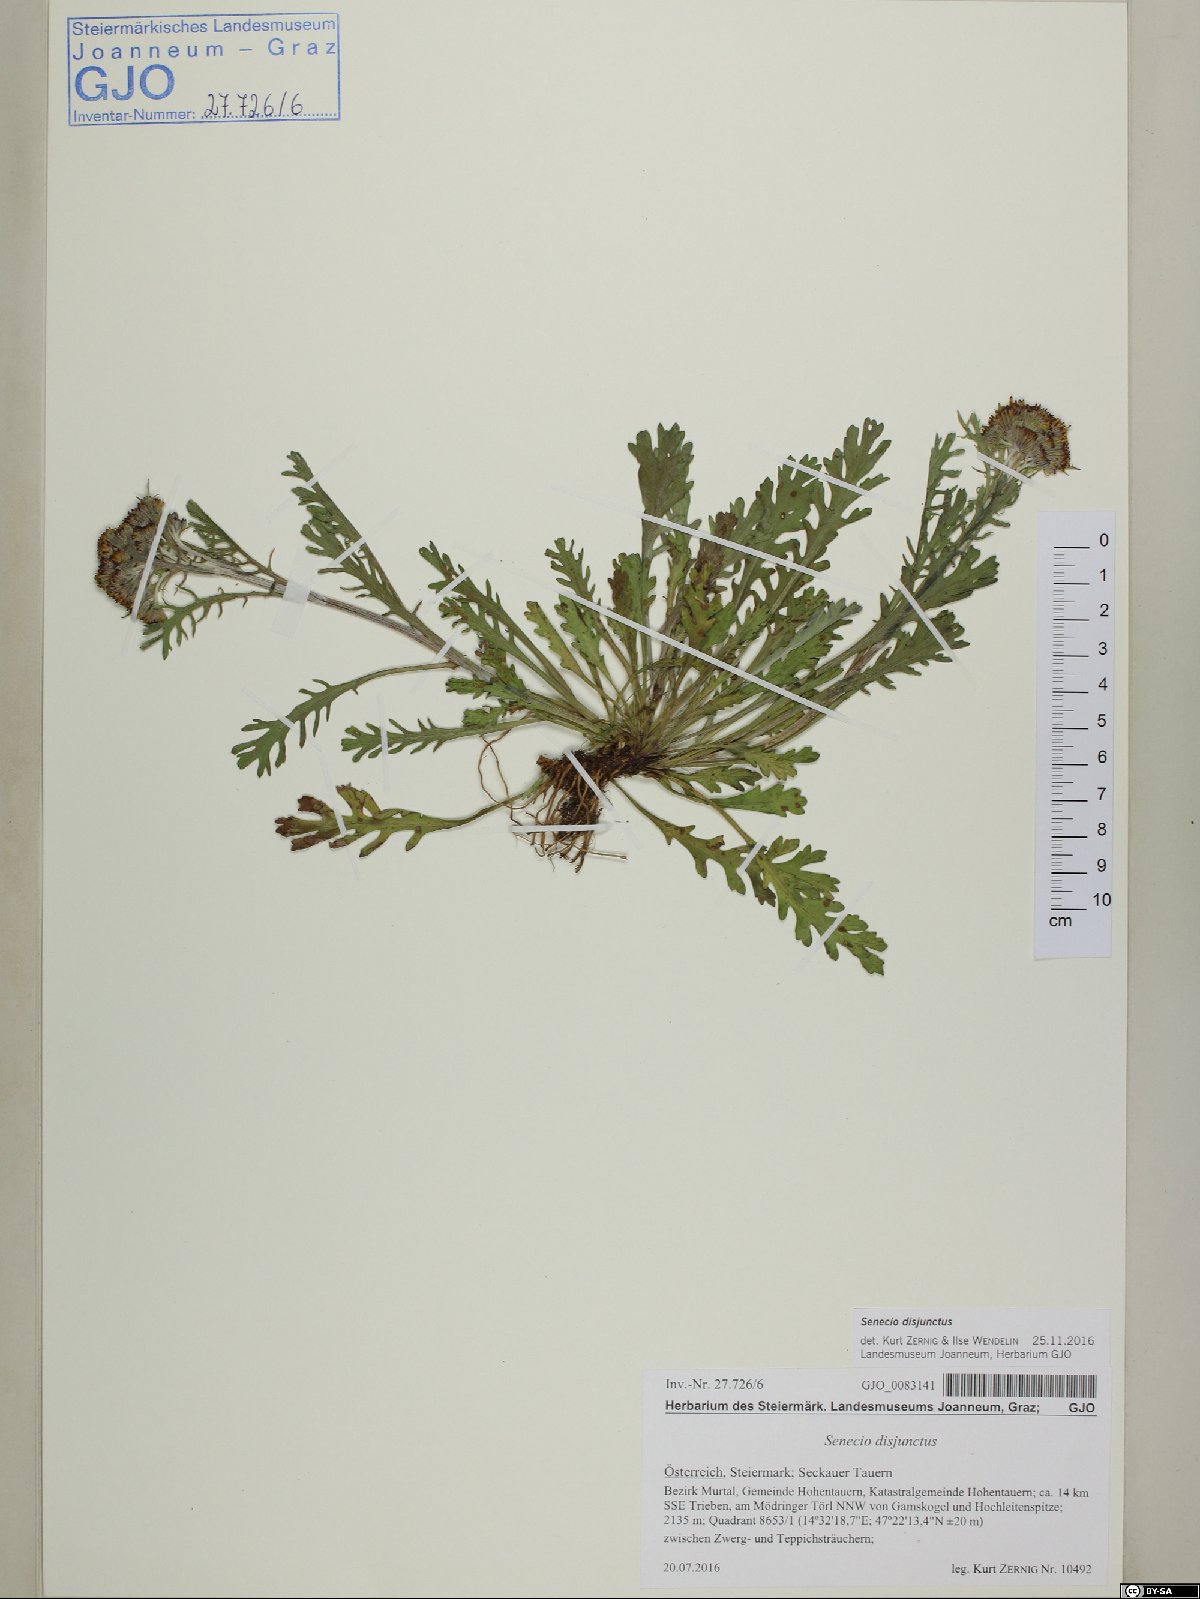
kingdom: Plantae
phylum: Tracheophyta
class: Magnoliopsida
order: Asterales
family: Asteraceae
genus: Jacobaea
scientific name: Jacobaea disjuncta
